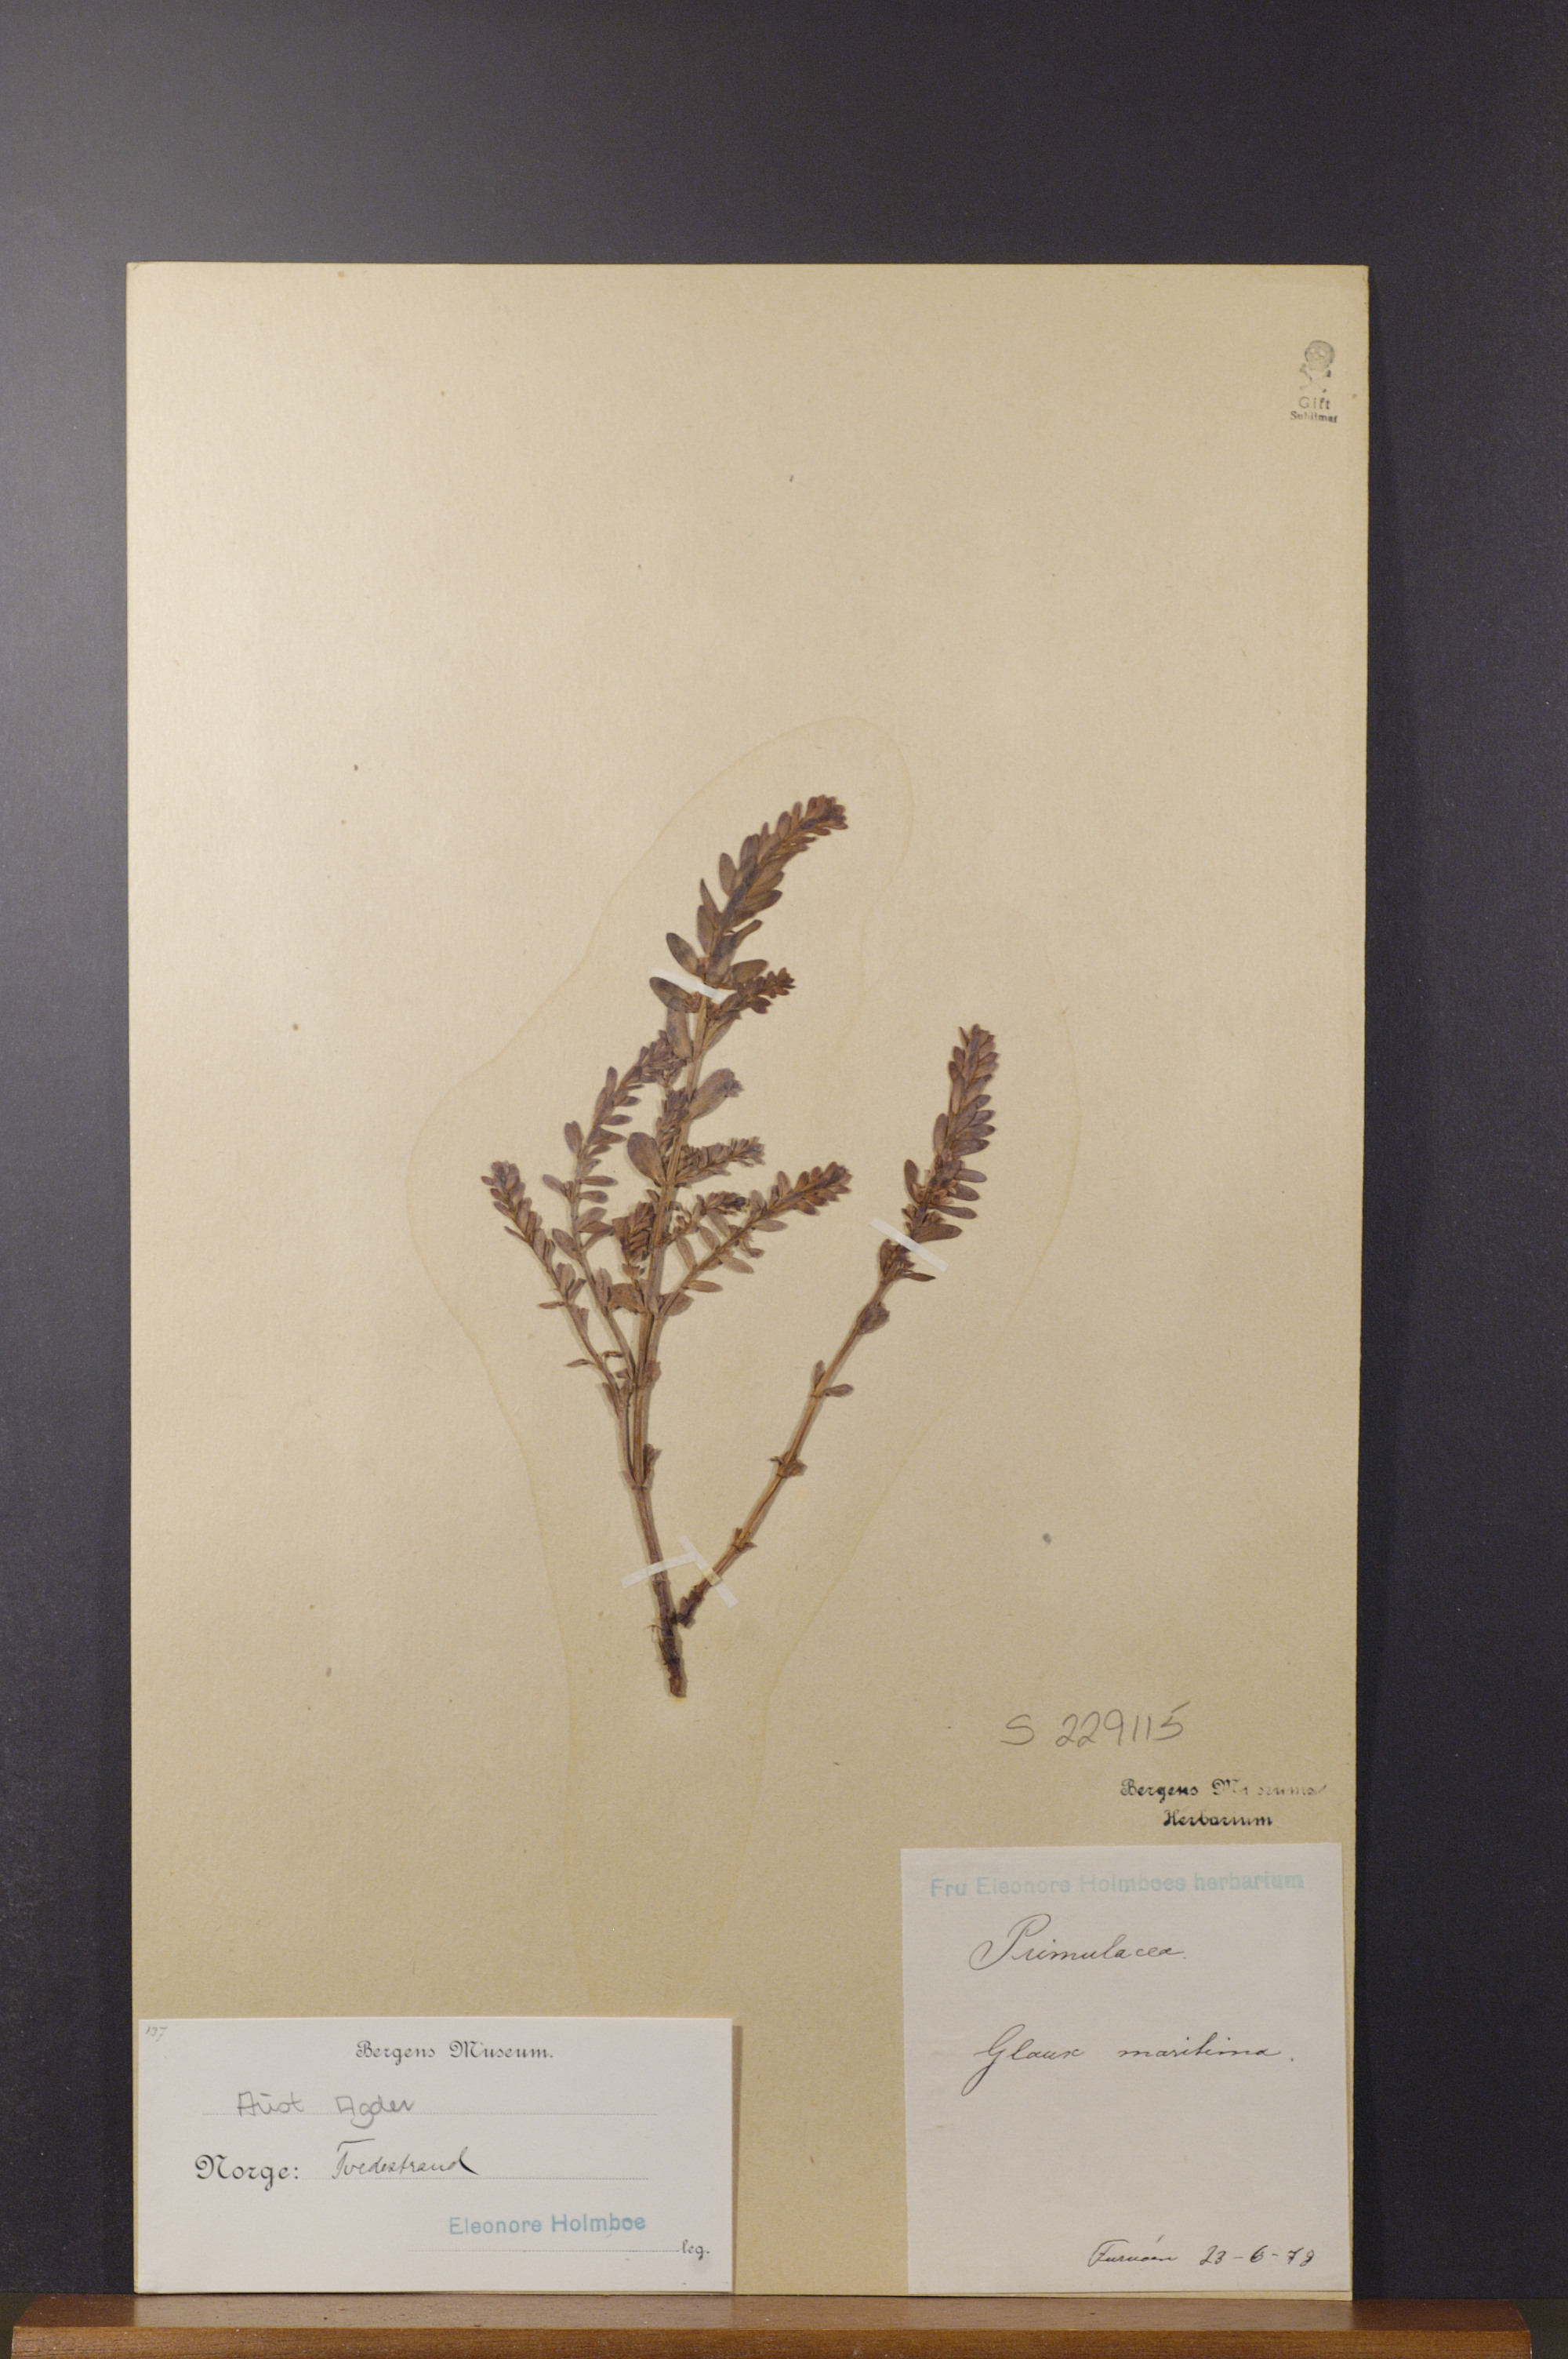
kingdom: Plantae
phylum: Tracheophyta
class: Magnoliopsida
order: Ericales
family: Primulaceae
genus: Lysimachia
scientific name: Lysimachia maritima
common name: Sea milkwort
